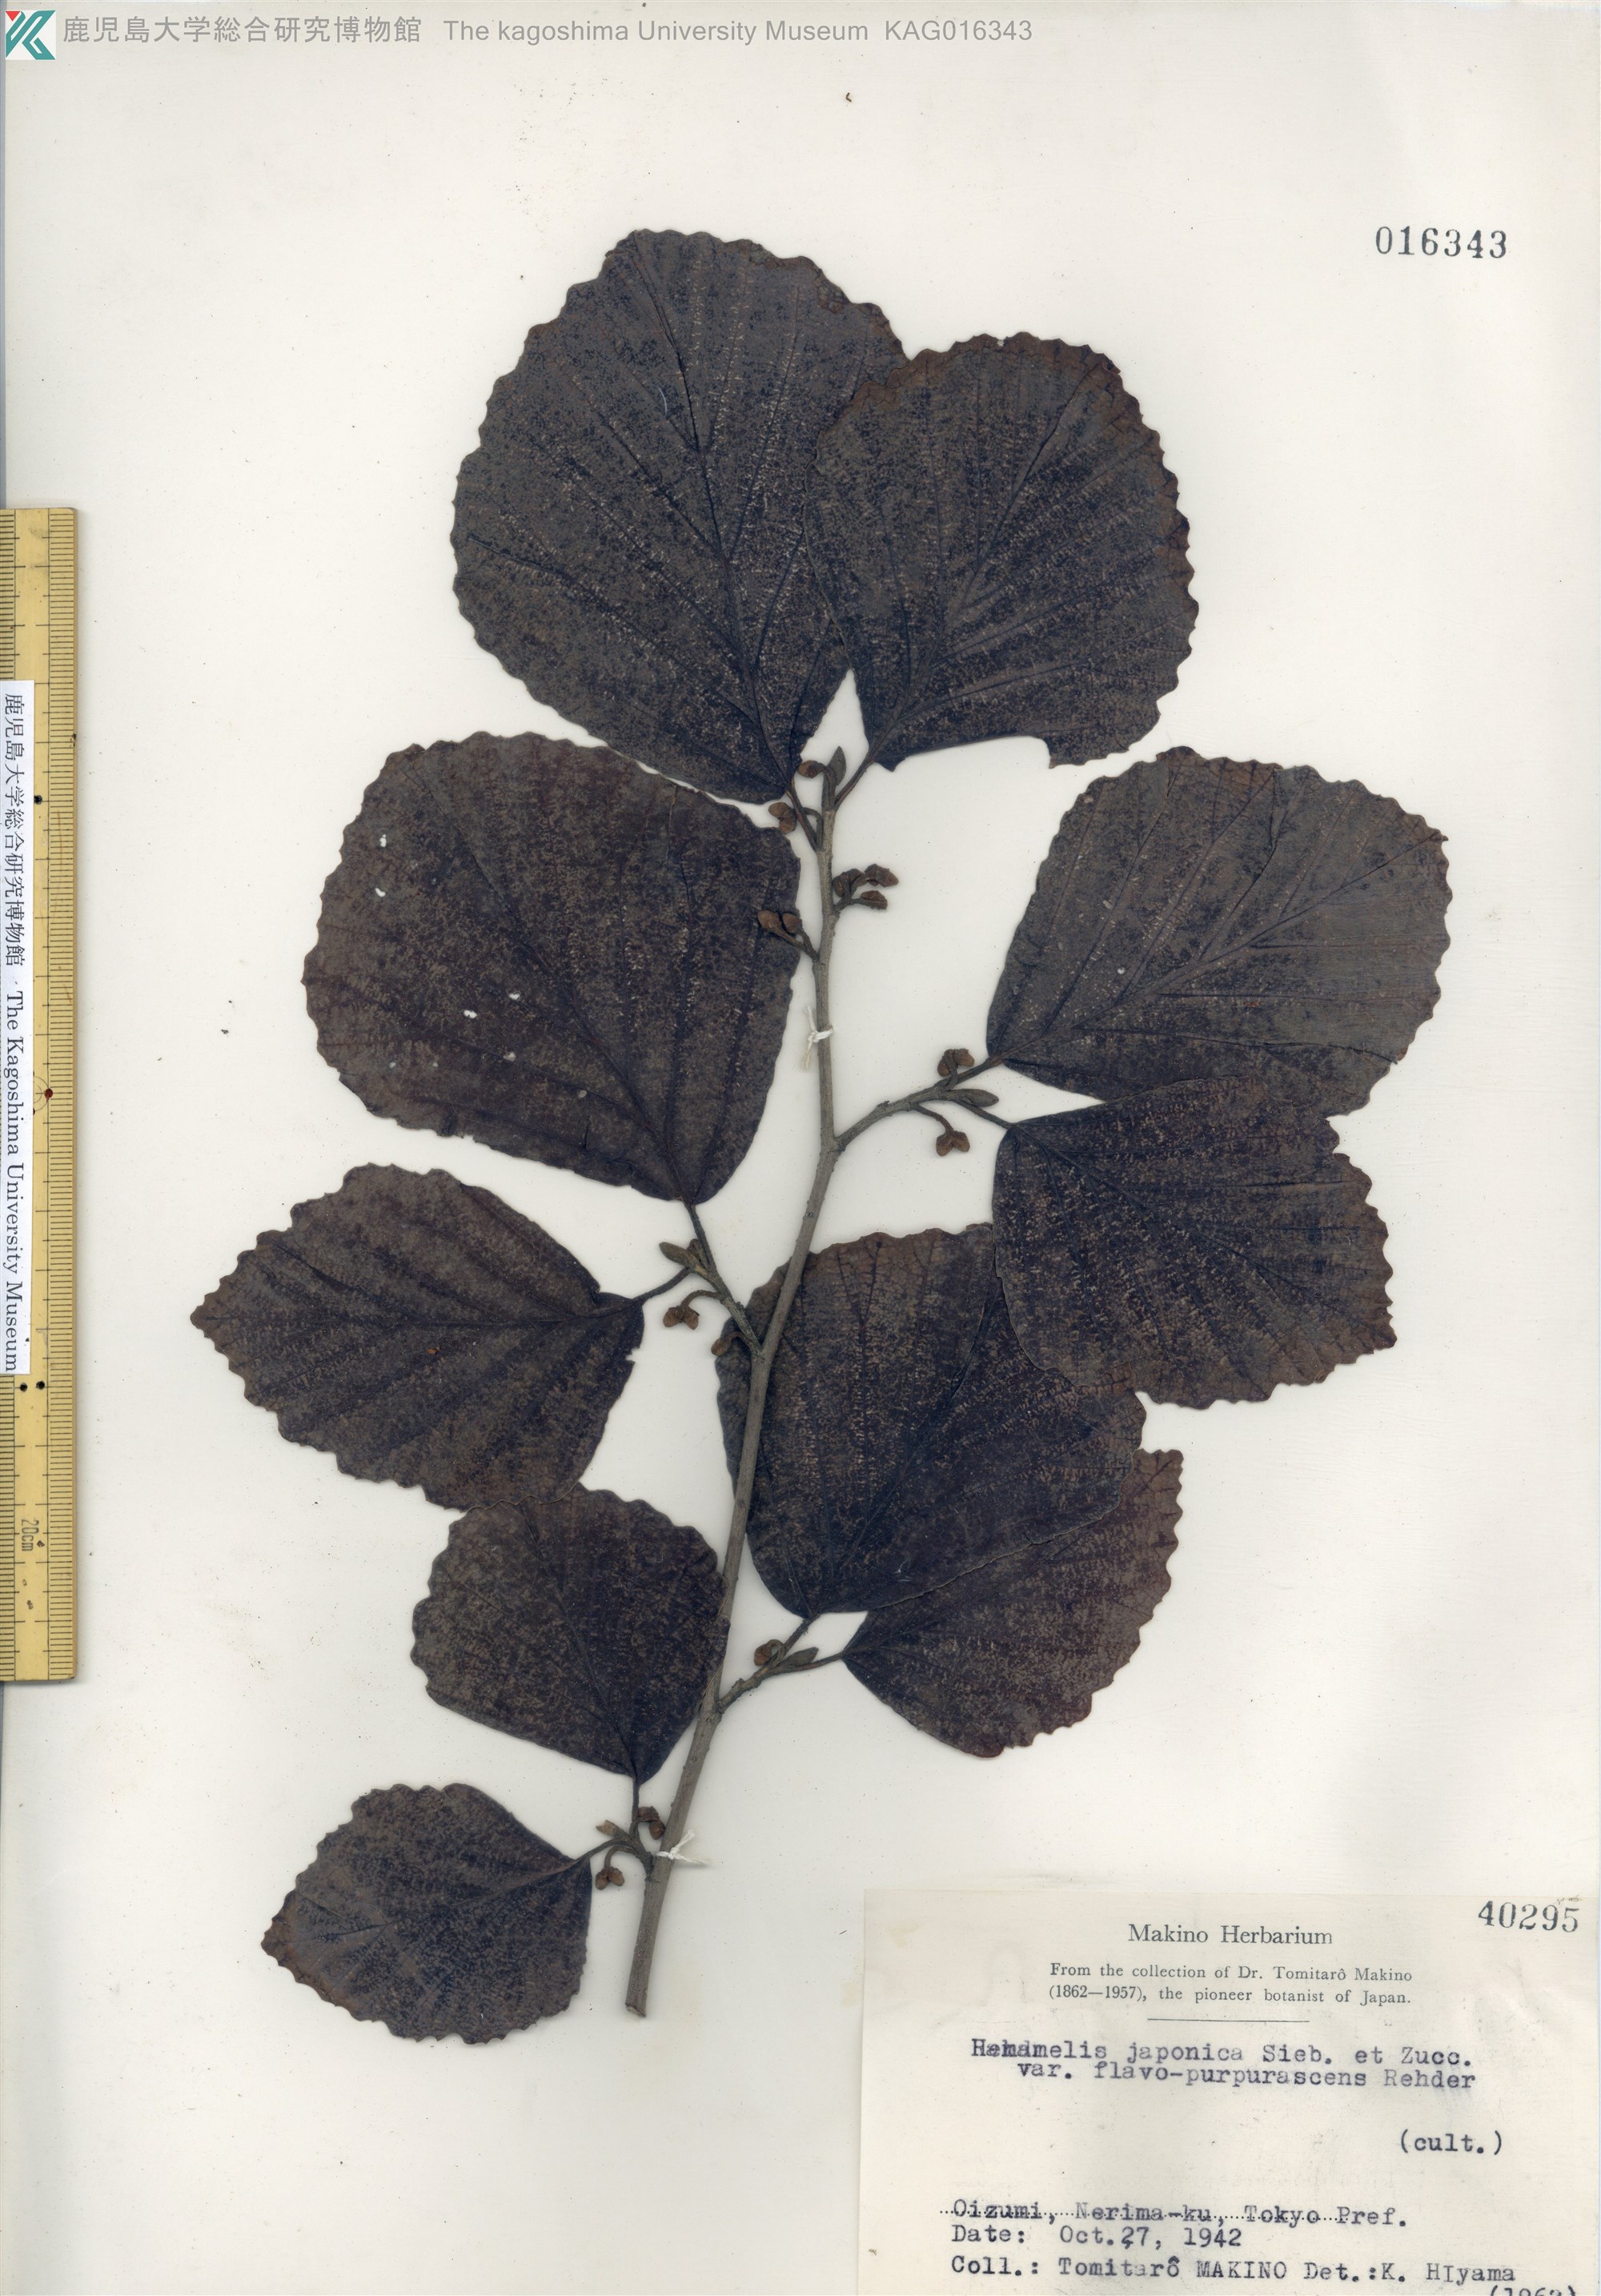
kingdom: Plantae
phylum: Tracheophyta
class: Magnoliopsida
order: Saxifragales
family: Hamamelidaceae
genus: Hamamelis
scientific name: Hamamelis japonica
